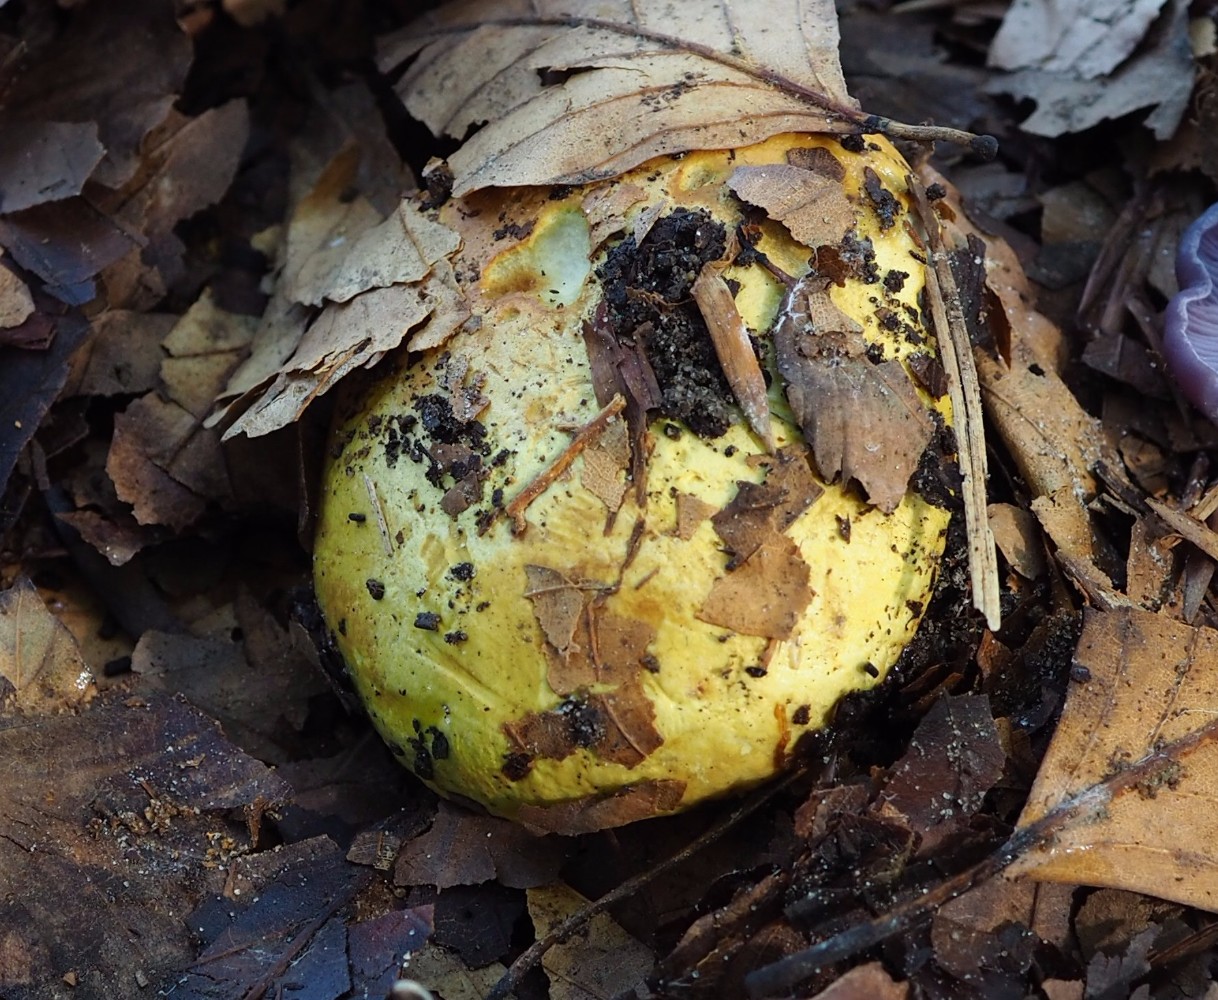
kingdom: Fungi
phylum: Basidiomycota
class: Agaricomycetes
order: Agaricales
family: Cortinariaceae
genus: Cortinarius
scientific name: Cortinarius
